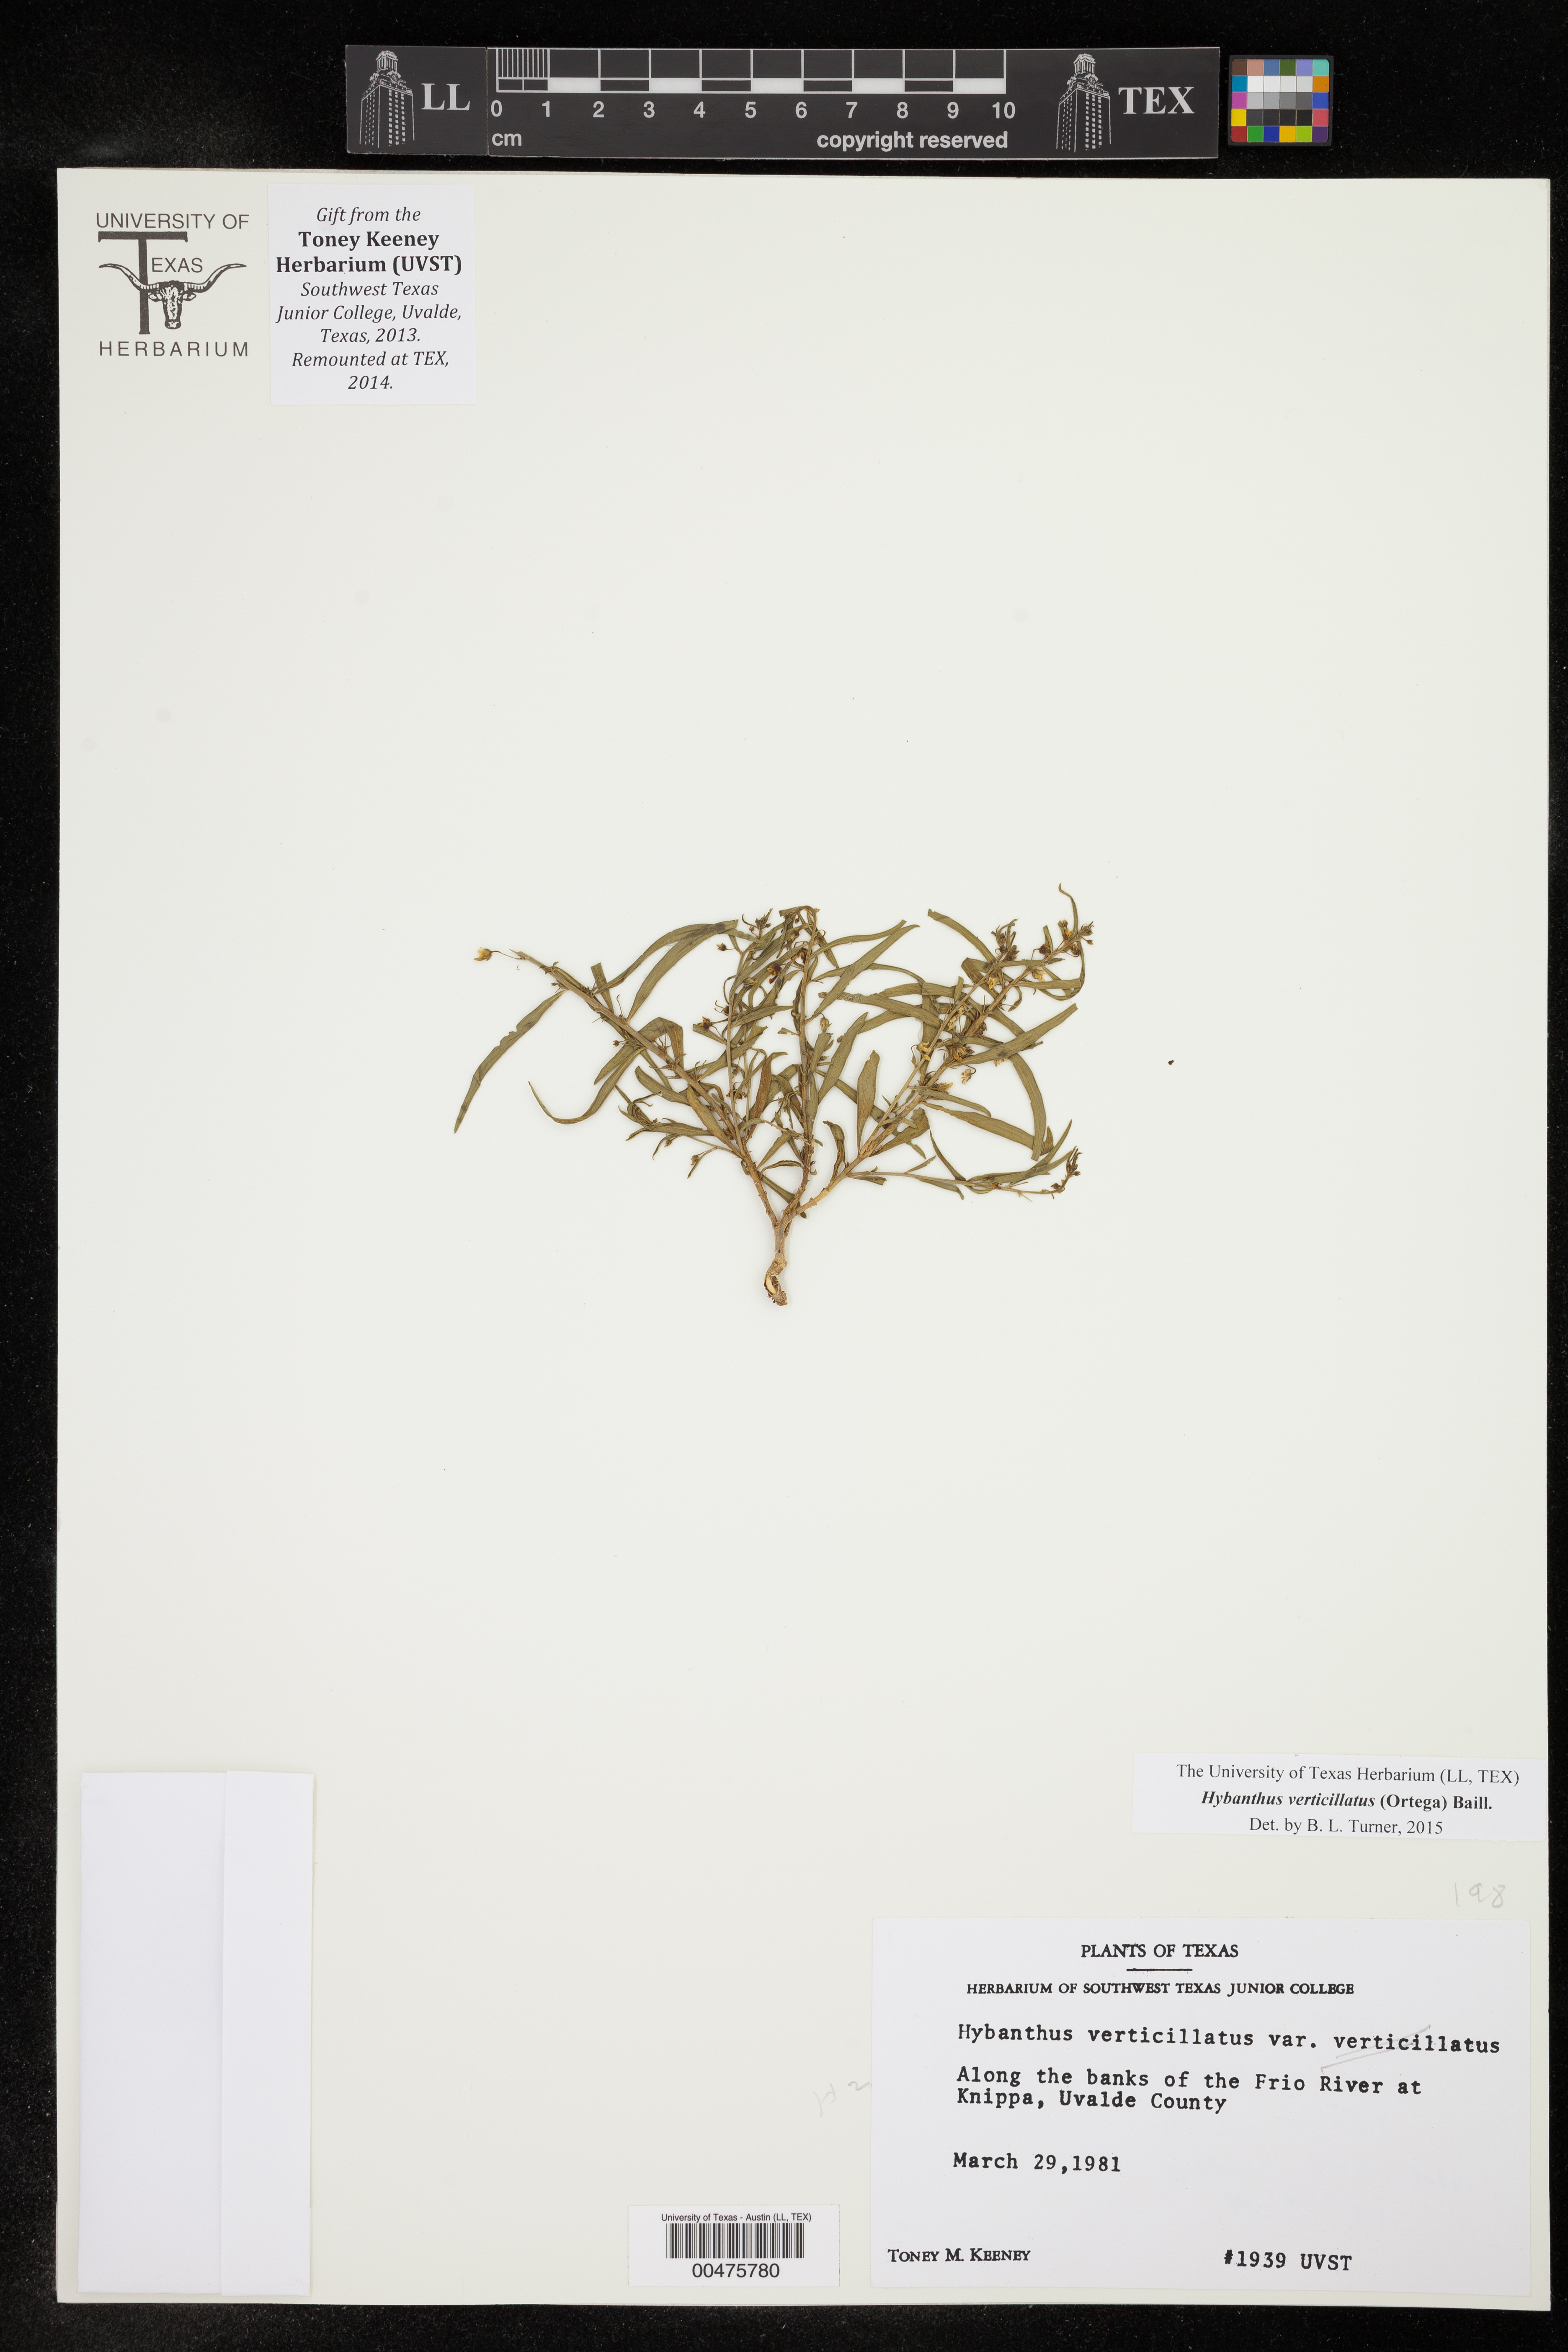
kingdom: Plantae
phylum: Tracheophyta
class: Magnoliopsida
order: Malpighiales
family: Violaceae
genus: Pombalia
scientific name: Pombalia verticillata
